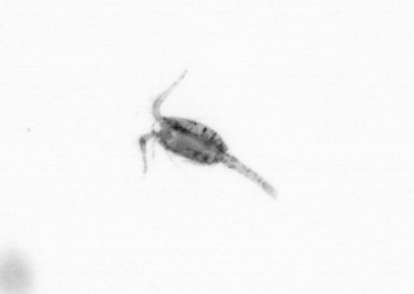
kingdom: Animalia
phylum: Arthropoda
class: Copepoda
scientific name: Copepoda
